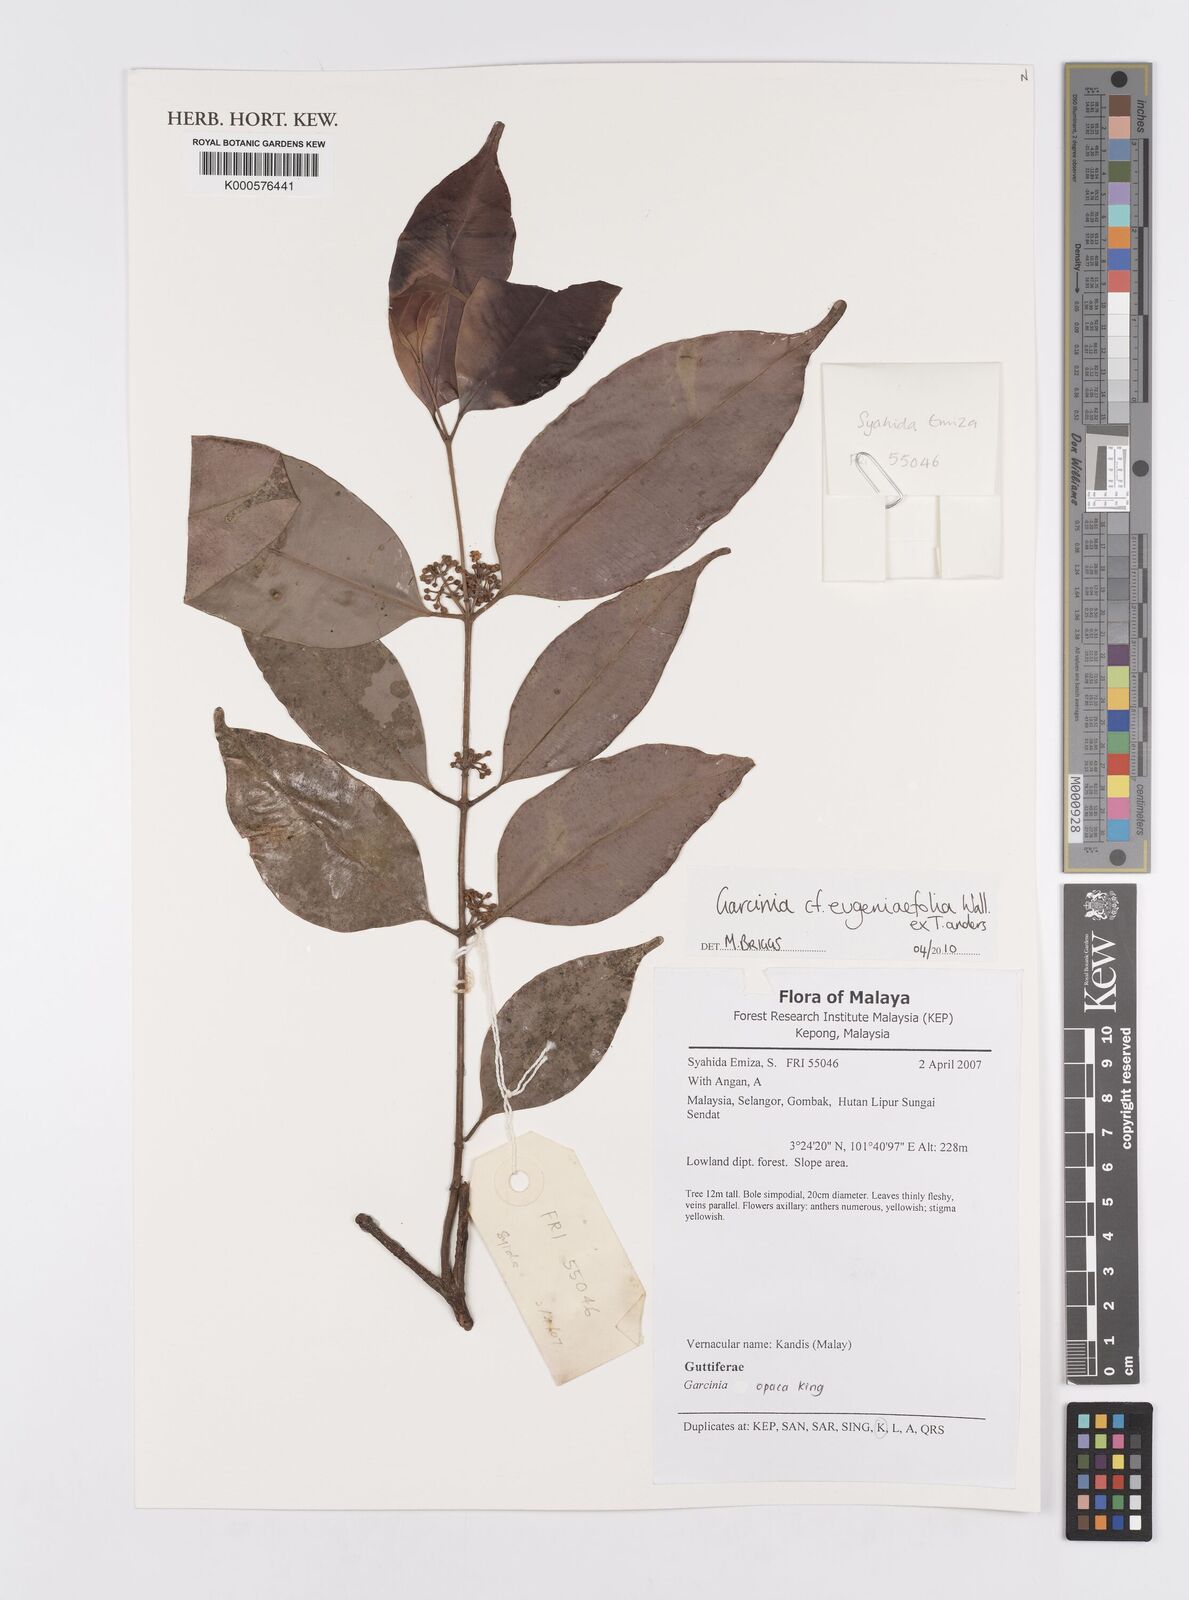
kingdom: Plantae
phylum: Tracheophyta
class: Magnoliopsida
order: Malpighiales
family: Clusiaceae
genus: Garcinia
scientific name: Garcinia
